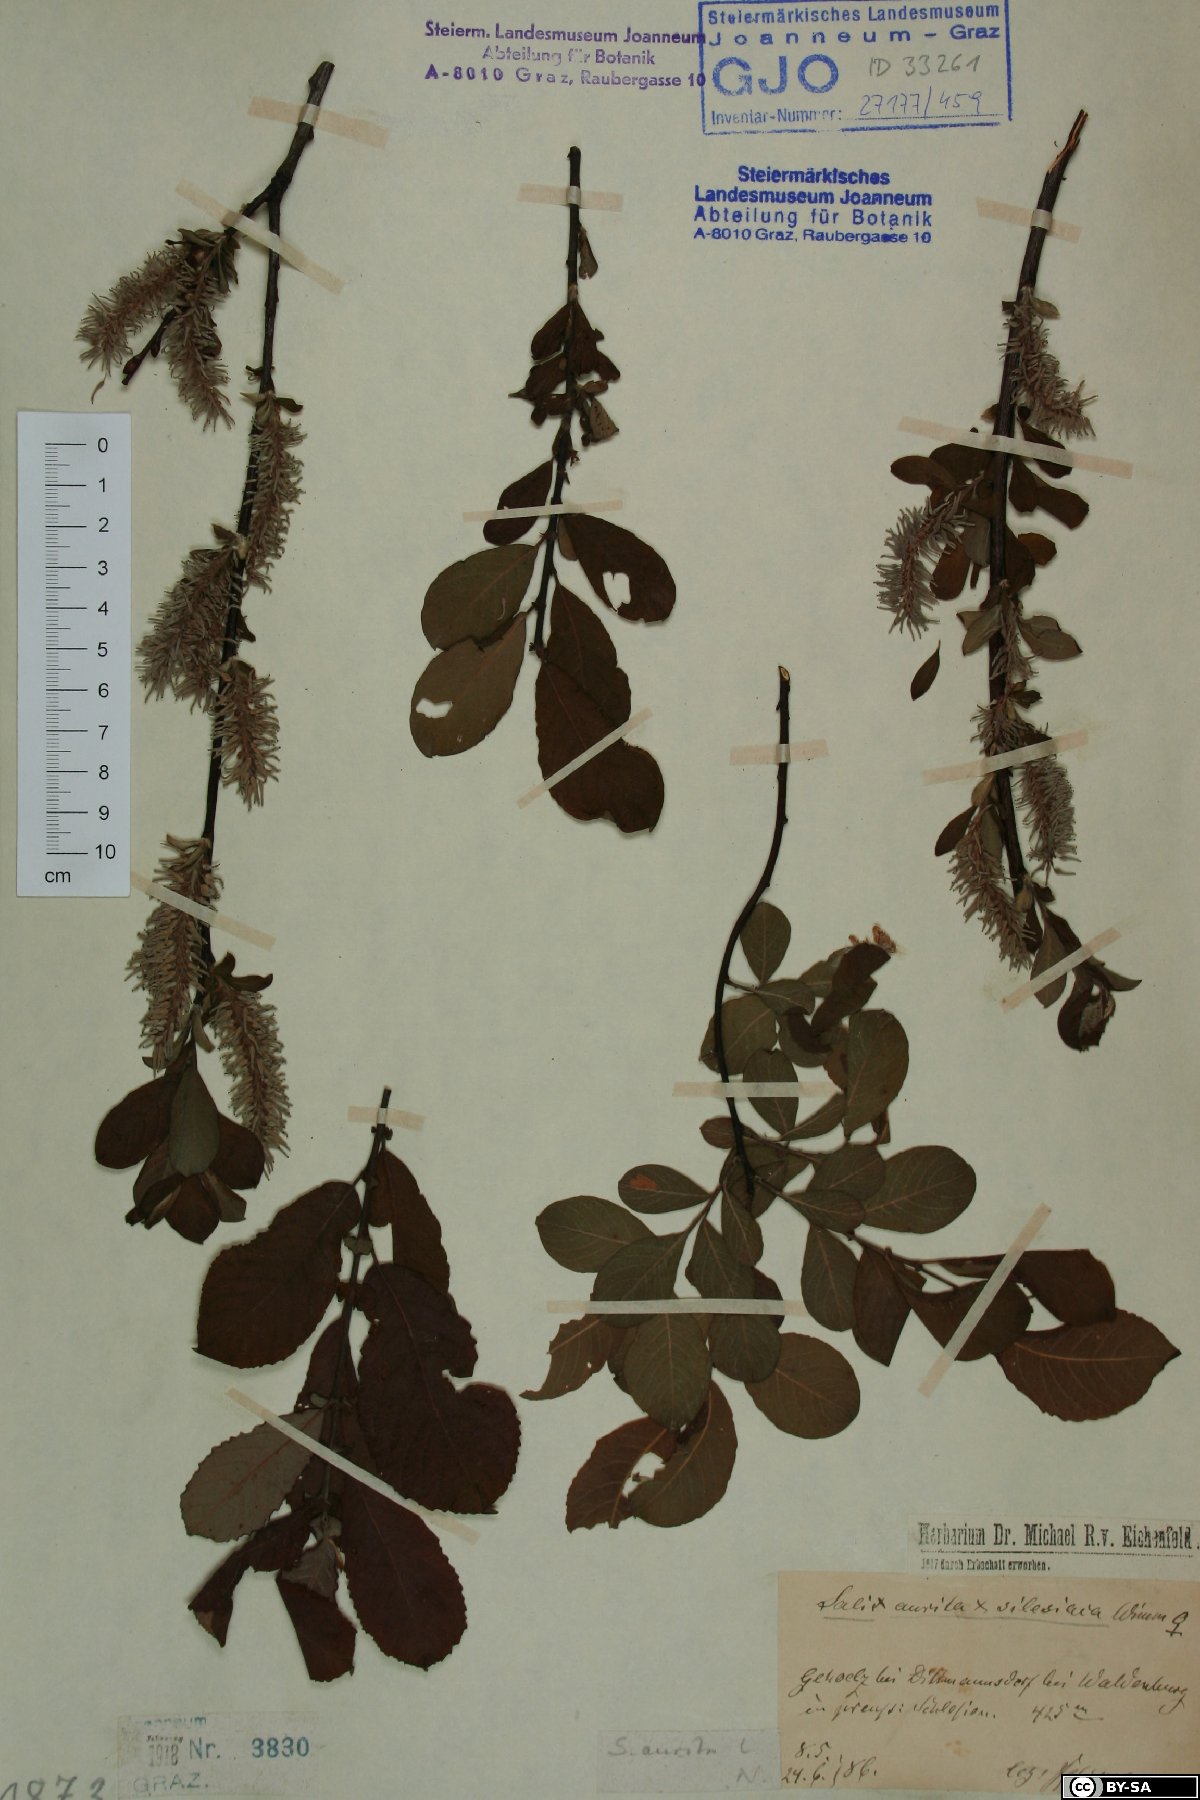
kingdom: Plantae
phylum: Tracheophyta
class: Magnoliopsida
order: Malpighiales
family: Salicaceae
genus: Salix
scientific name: Salix aurita
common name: Eared willow
